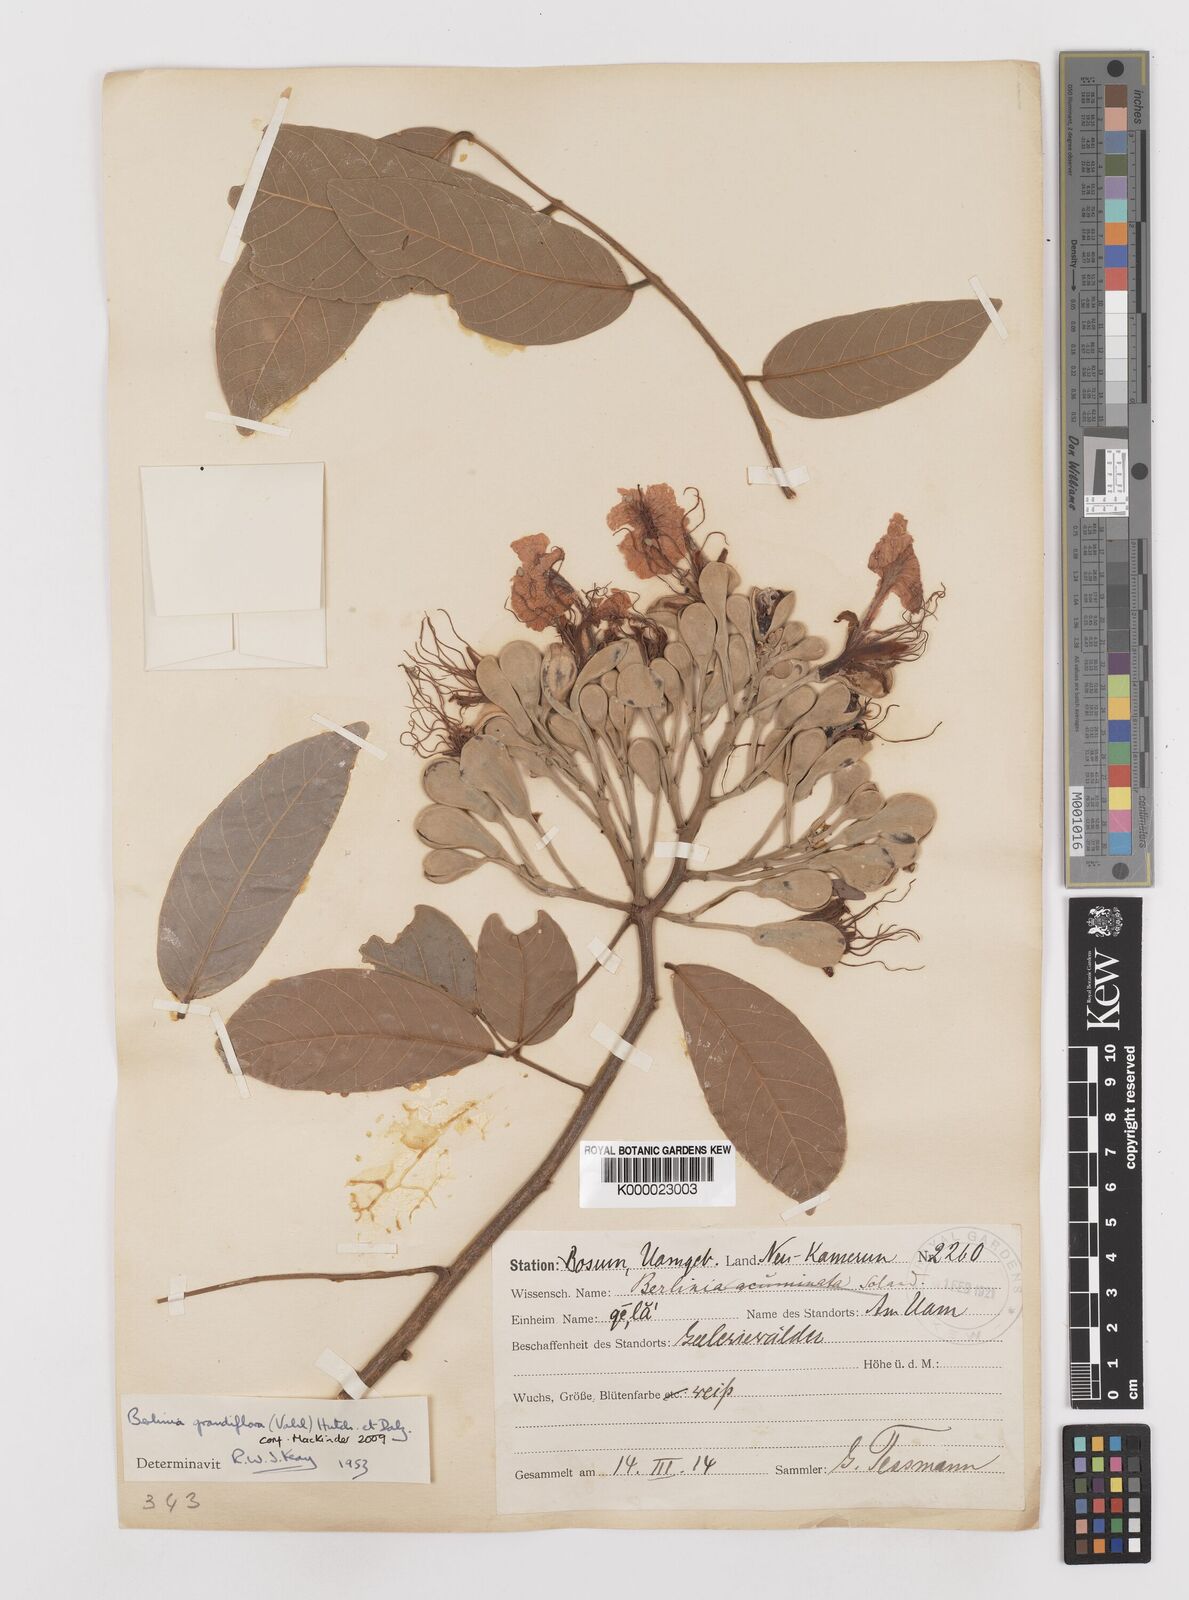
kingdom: Plantae
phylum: Tracheophyta
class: Magnoliopsida
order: Fabales
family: Fabaceae
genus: Berlinia
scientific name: Berlinia grandiflora
